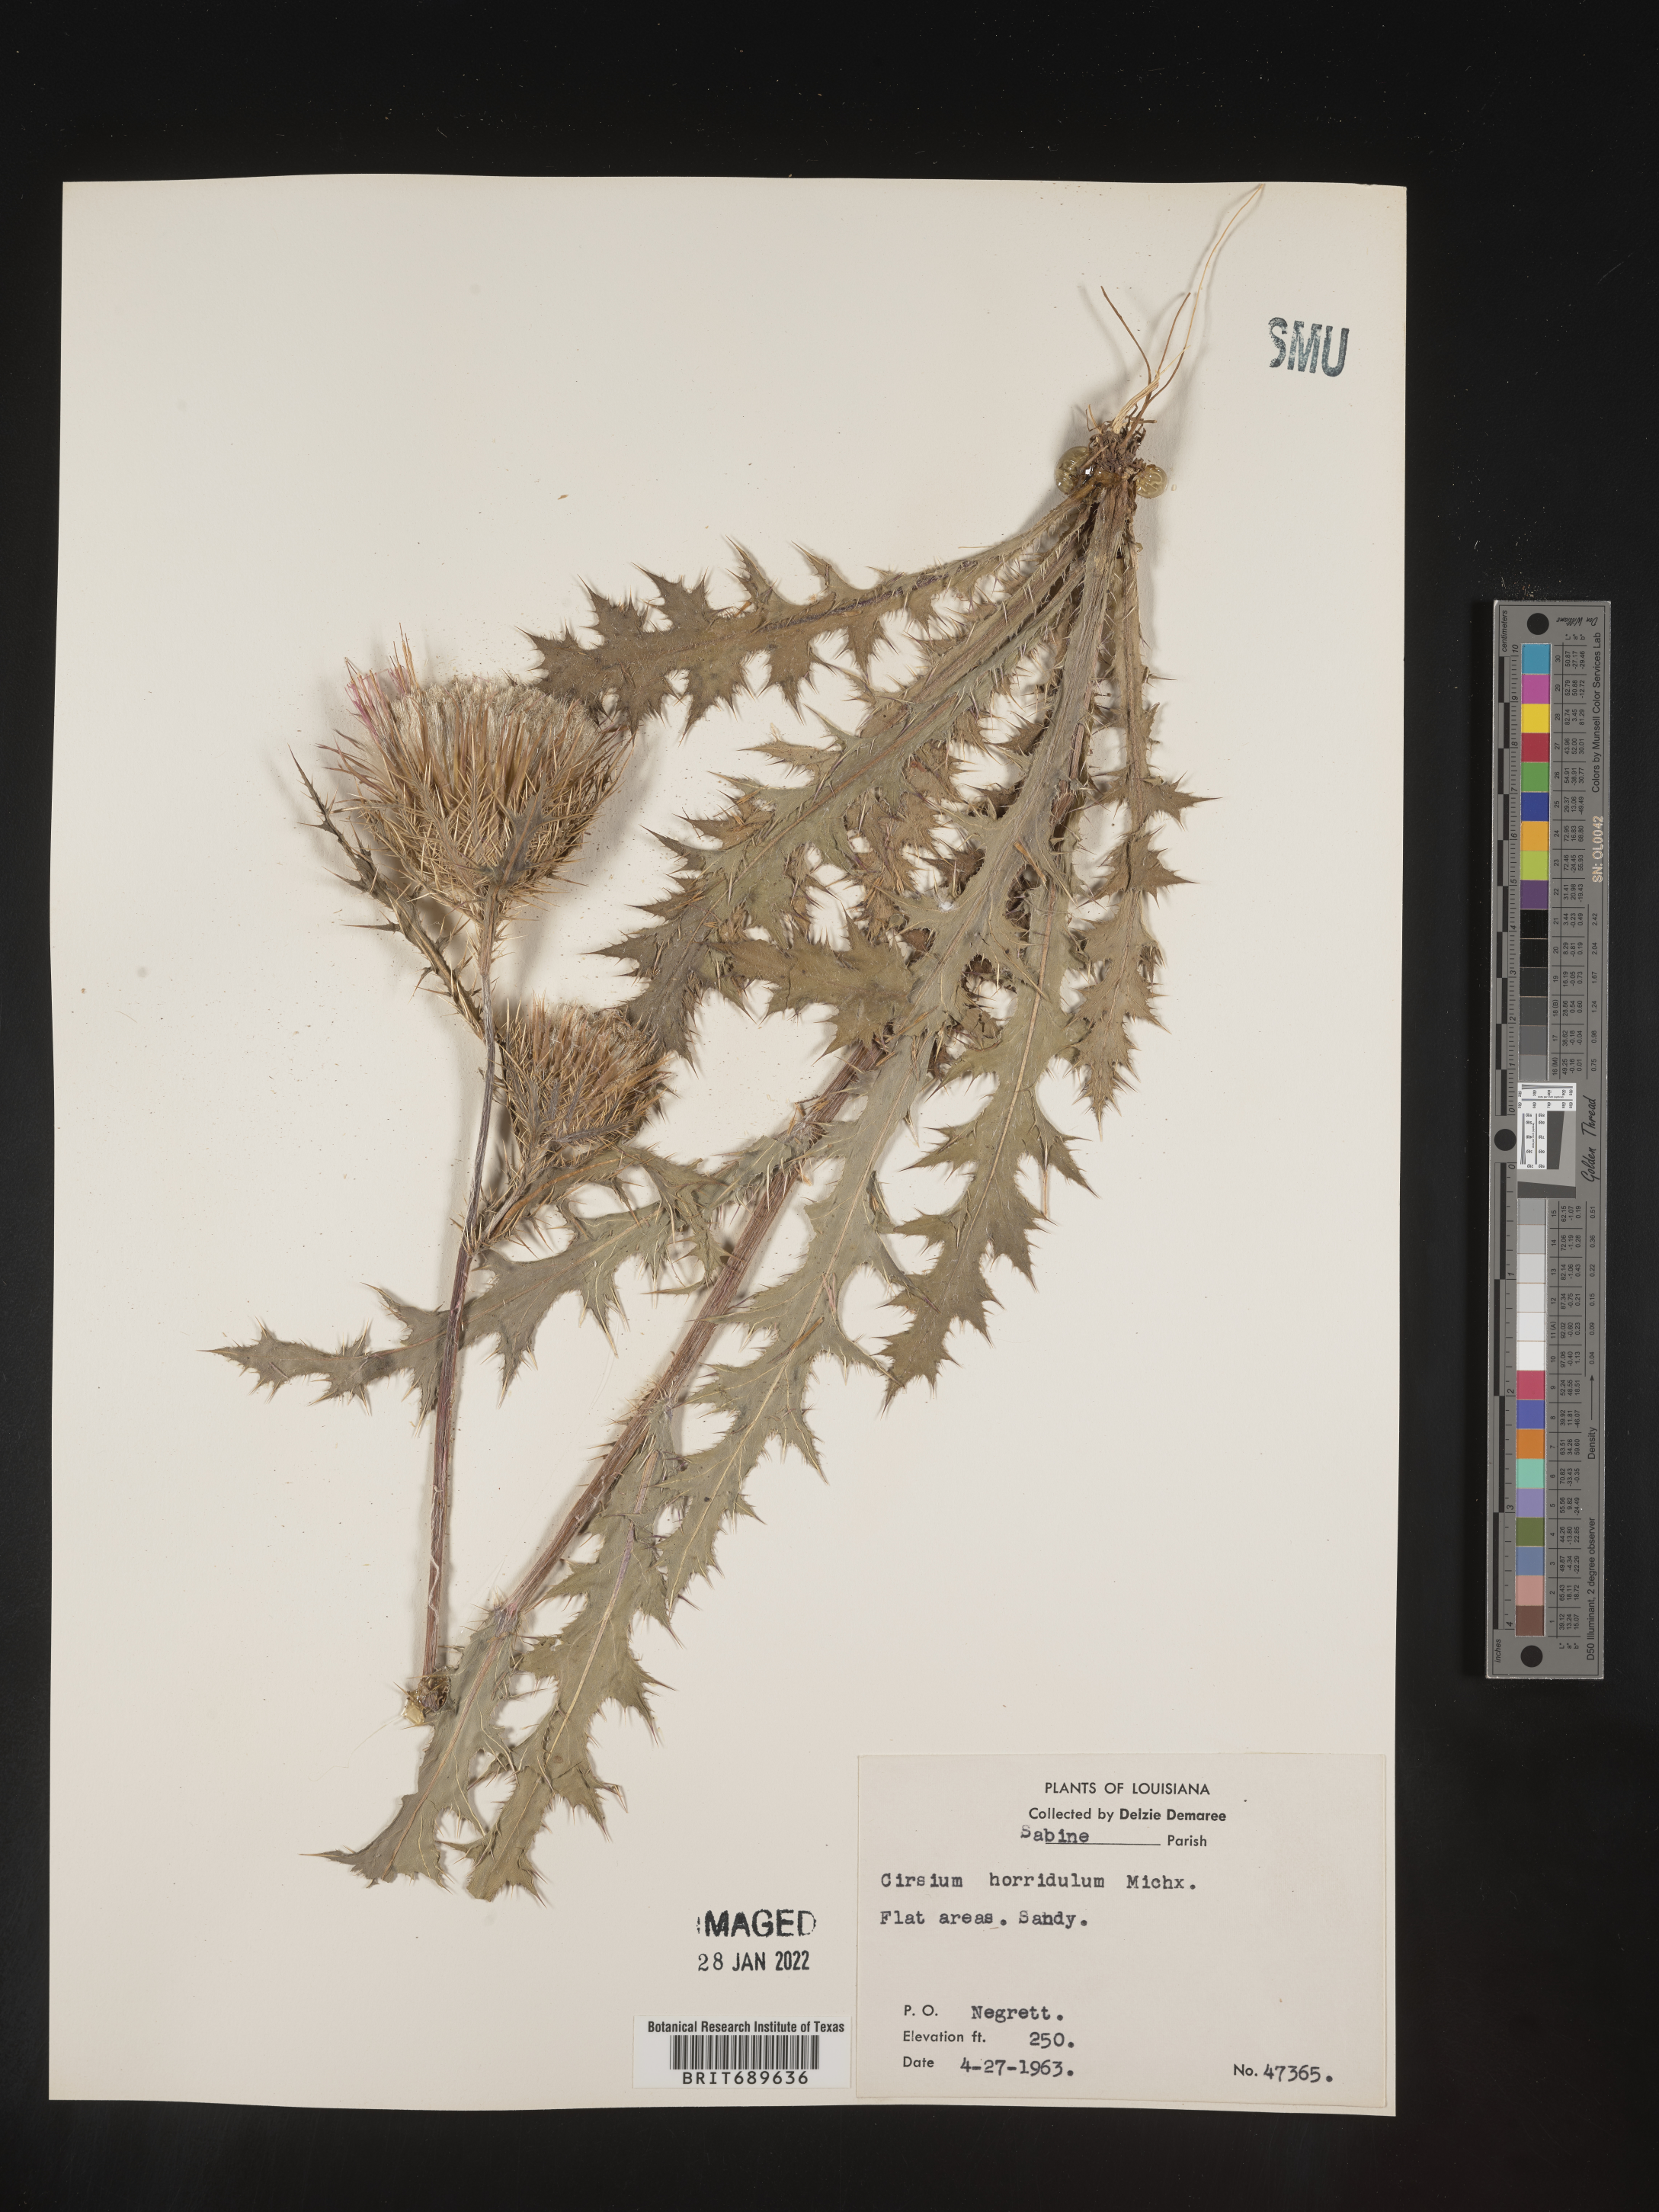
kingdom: Plantae
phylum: Tracheophyta
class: Magnoliopsida
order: Asterales
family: Asteraceae
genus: Cirsium
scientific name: Cirsium horridulum
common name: Bristly thistle
